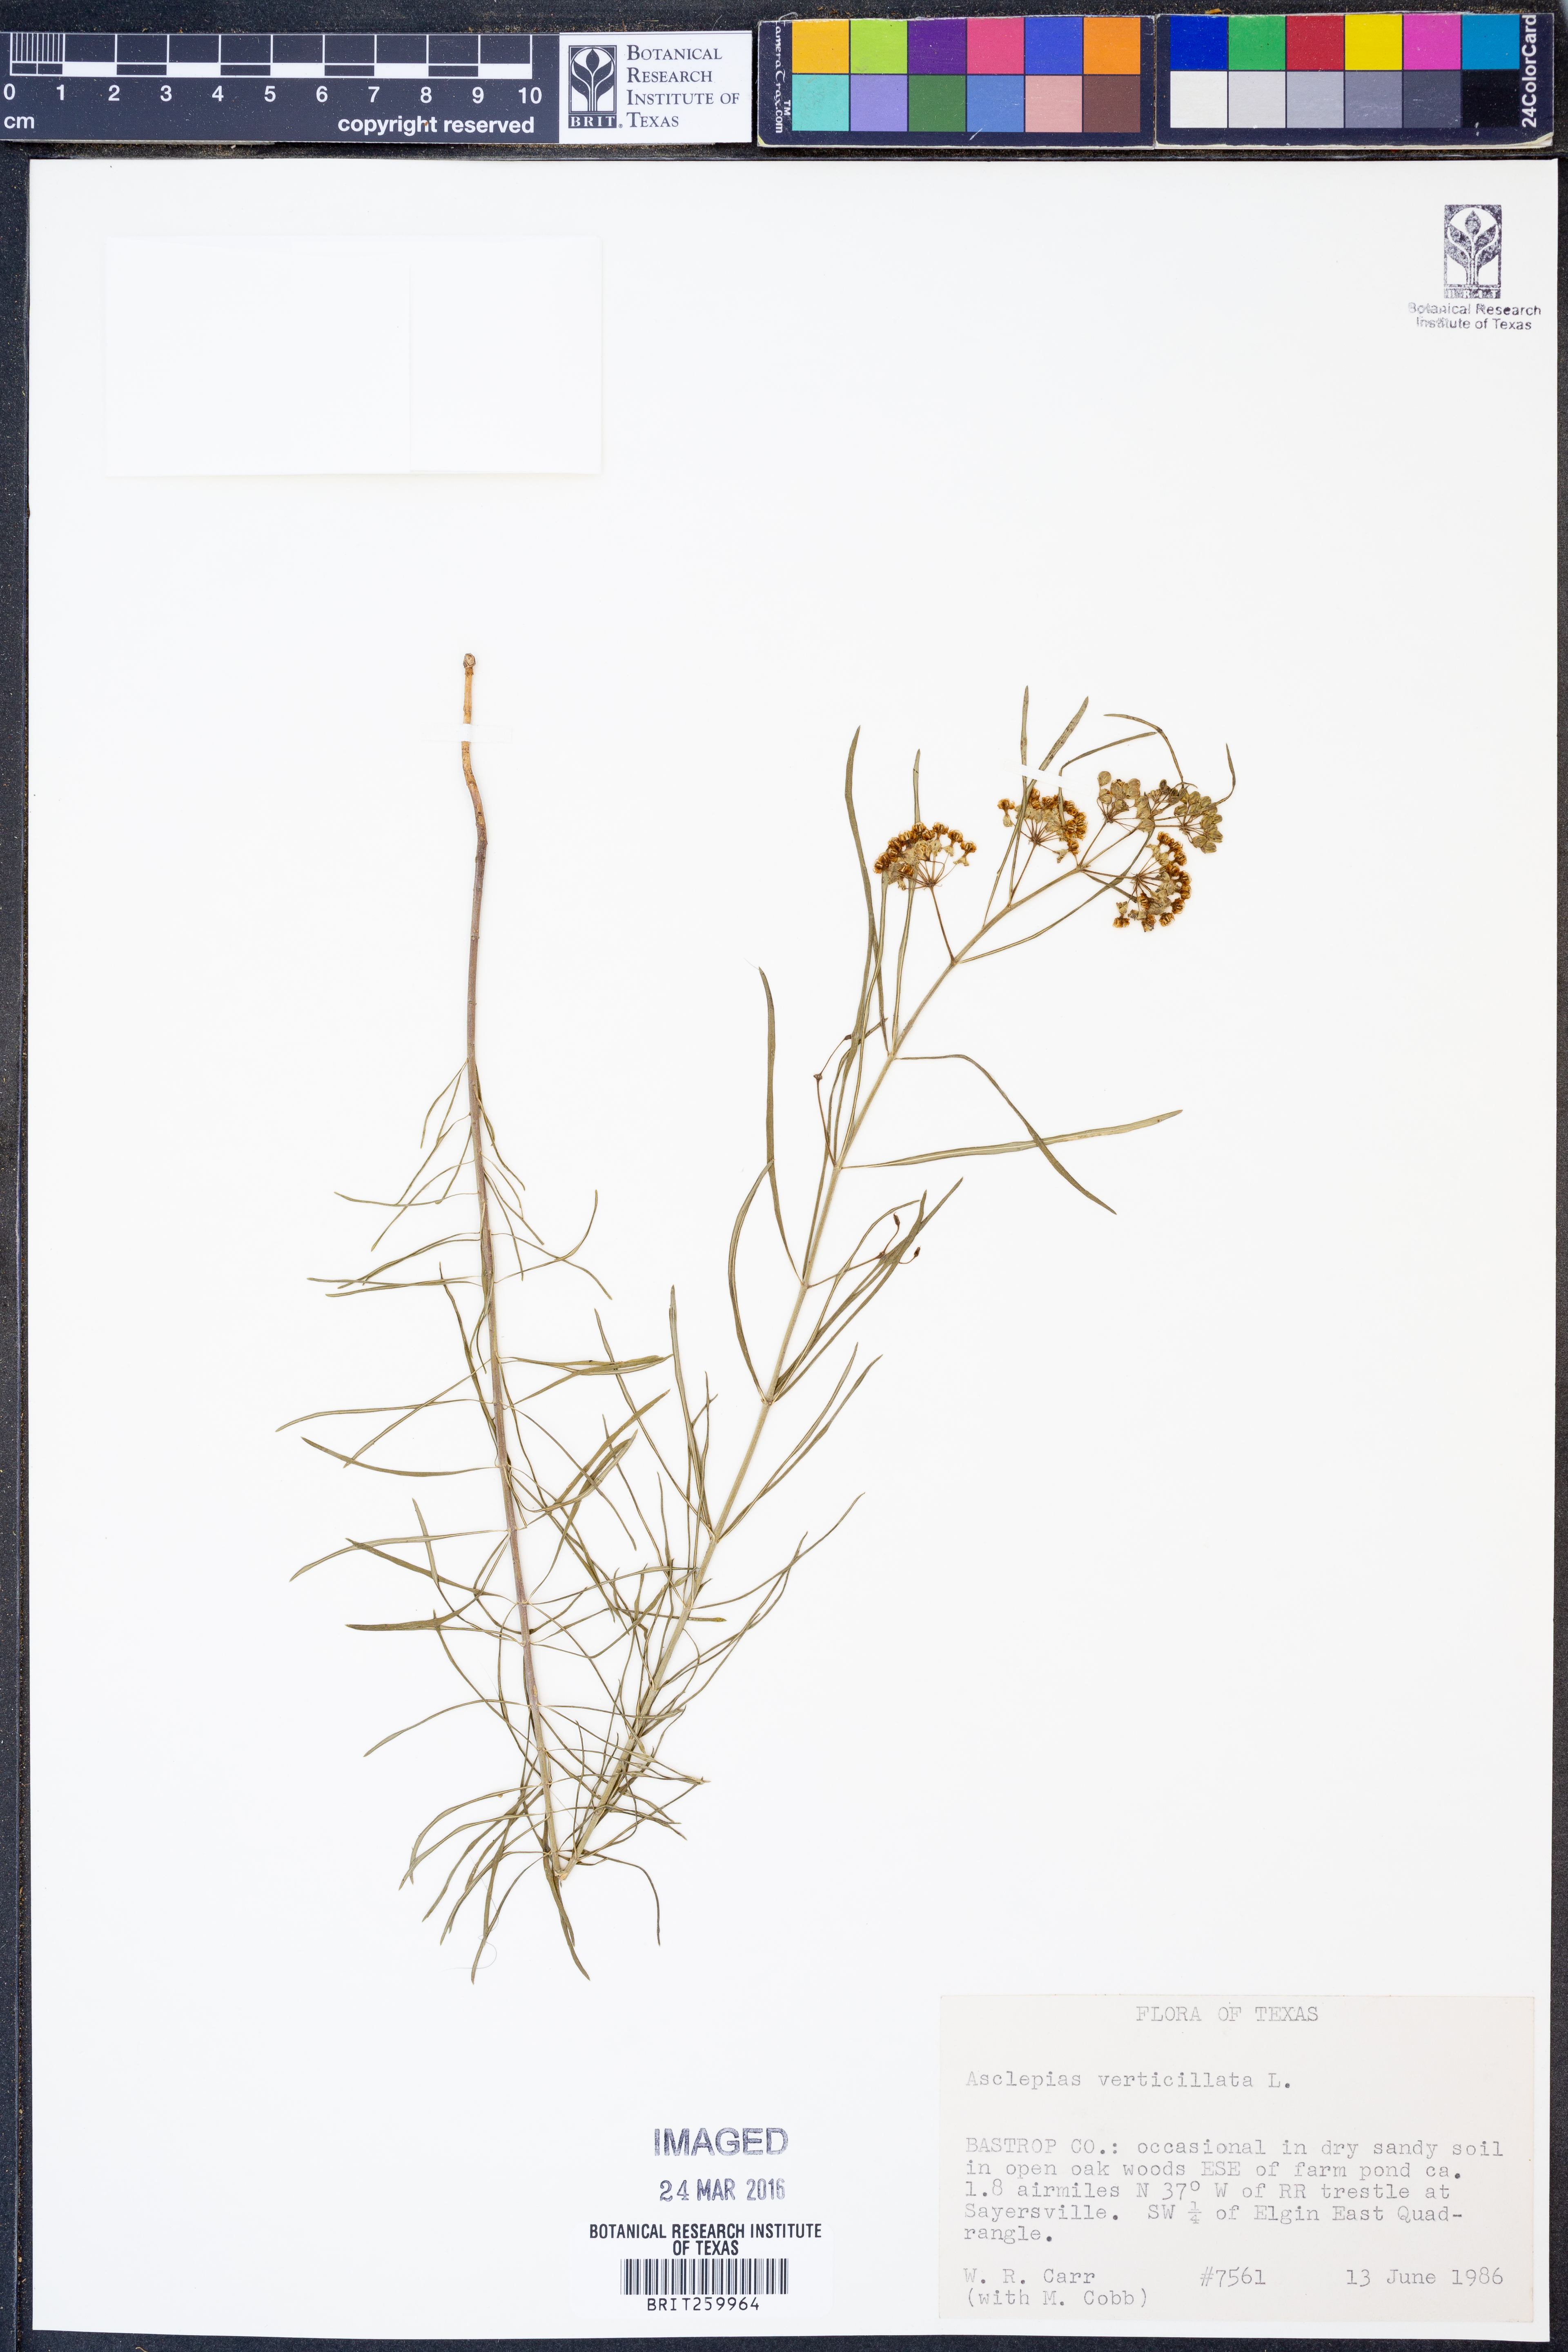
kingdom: Plantae
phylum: Tracheophyta
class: Magnoliopsida
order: Gentianales
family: Apocynaceae
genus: Asclepias
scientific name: Asclepias verticillata
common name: Eastern whorled milkweed
